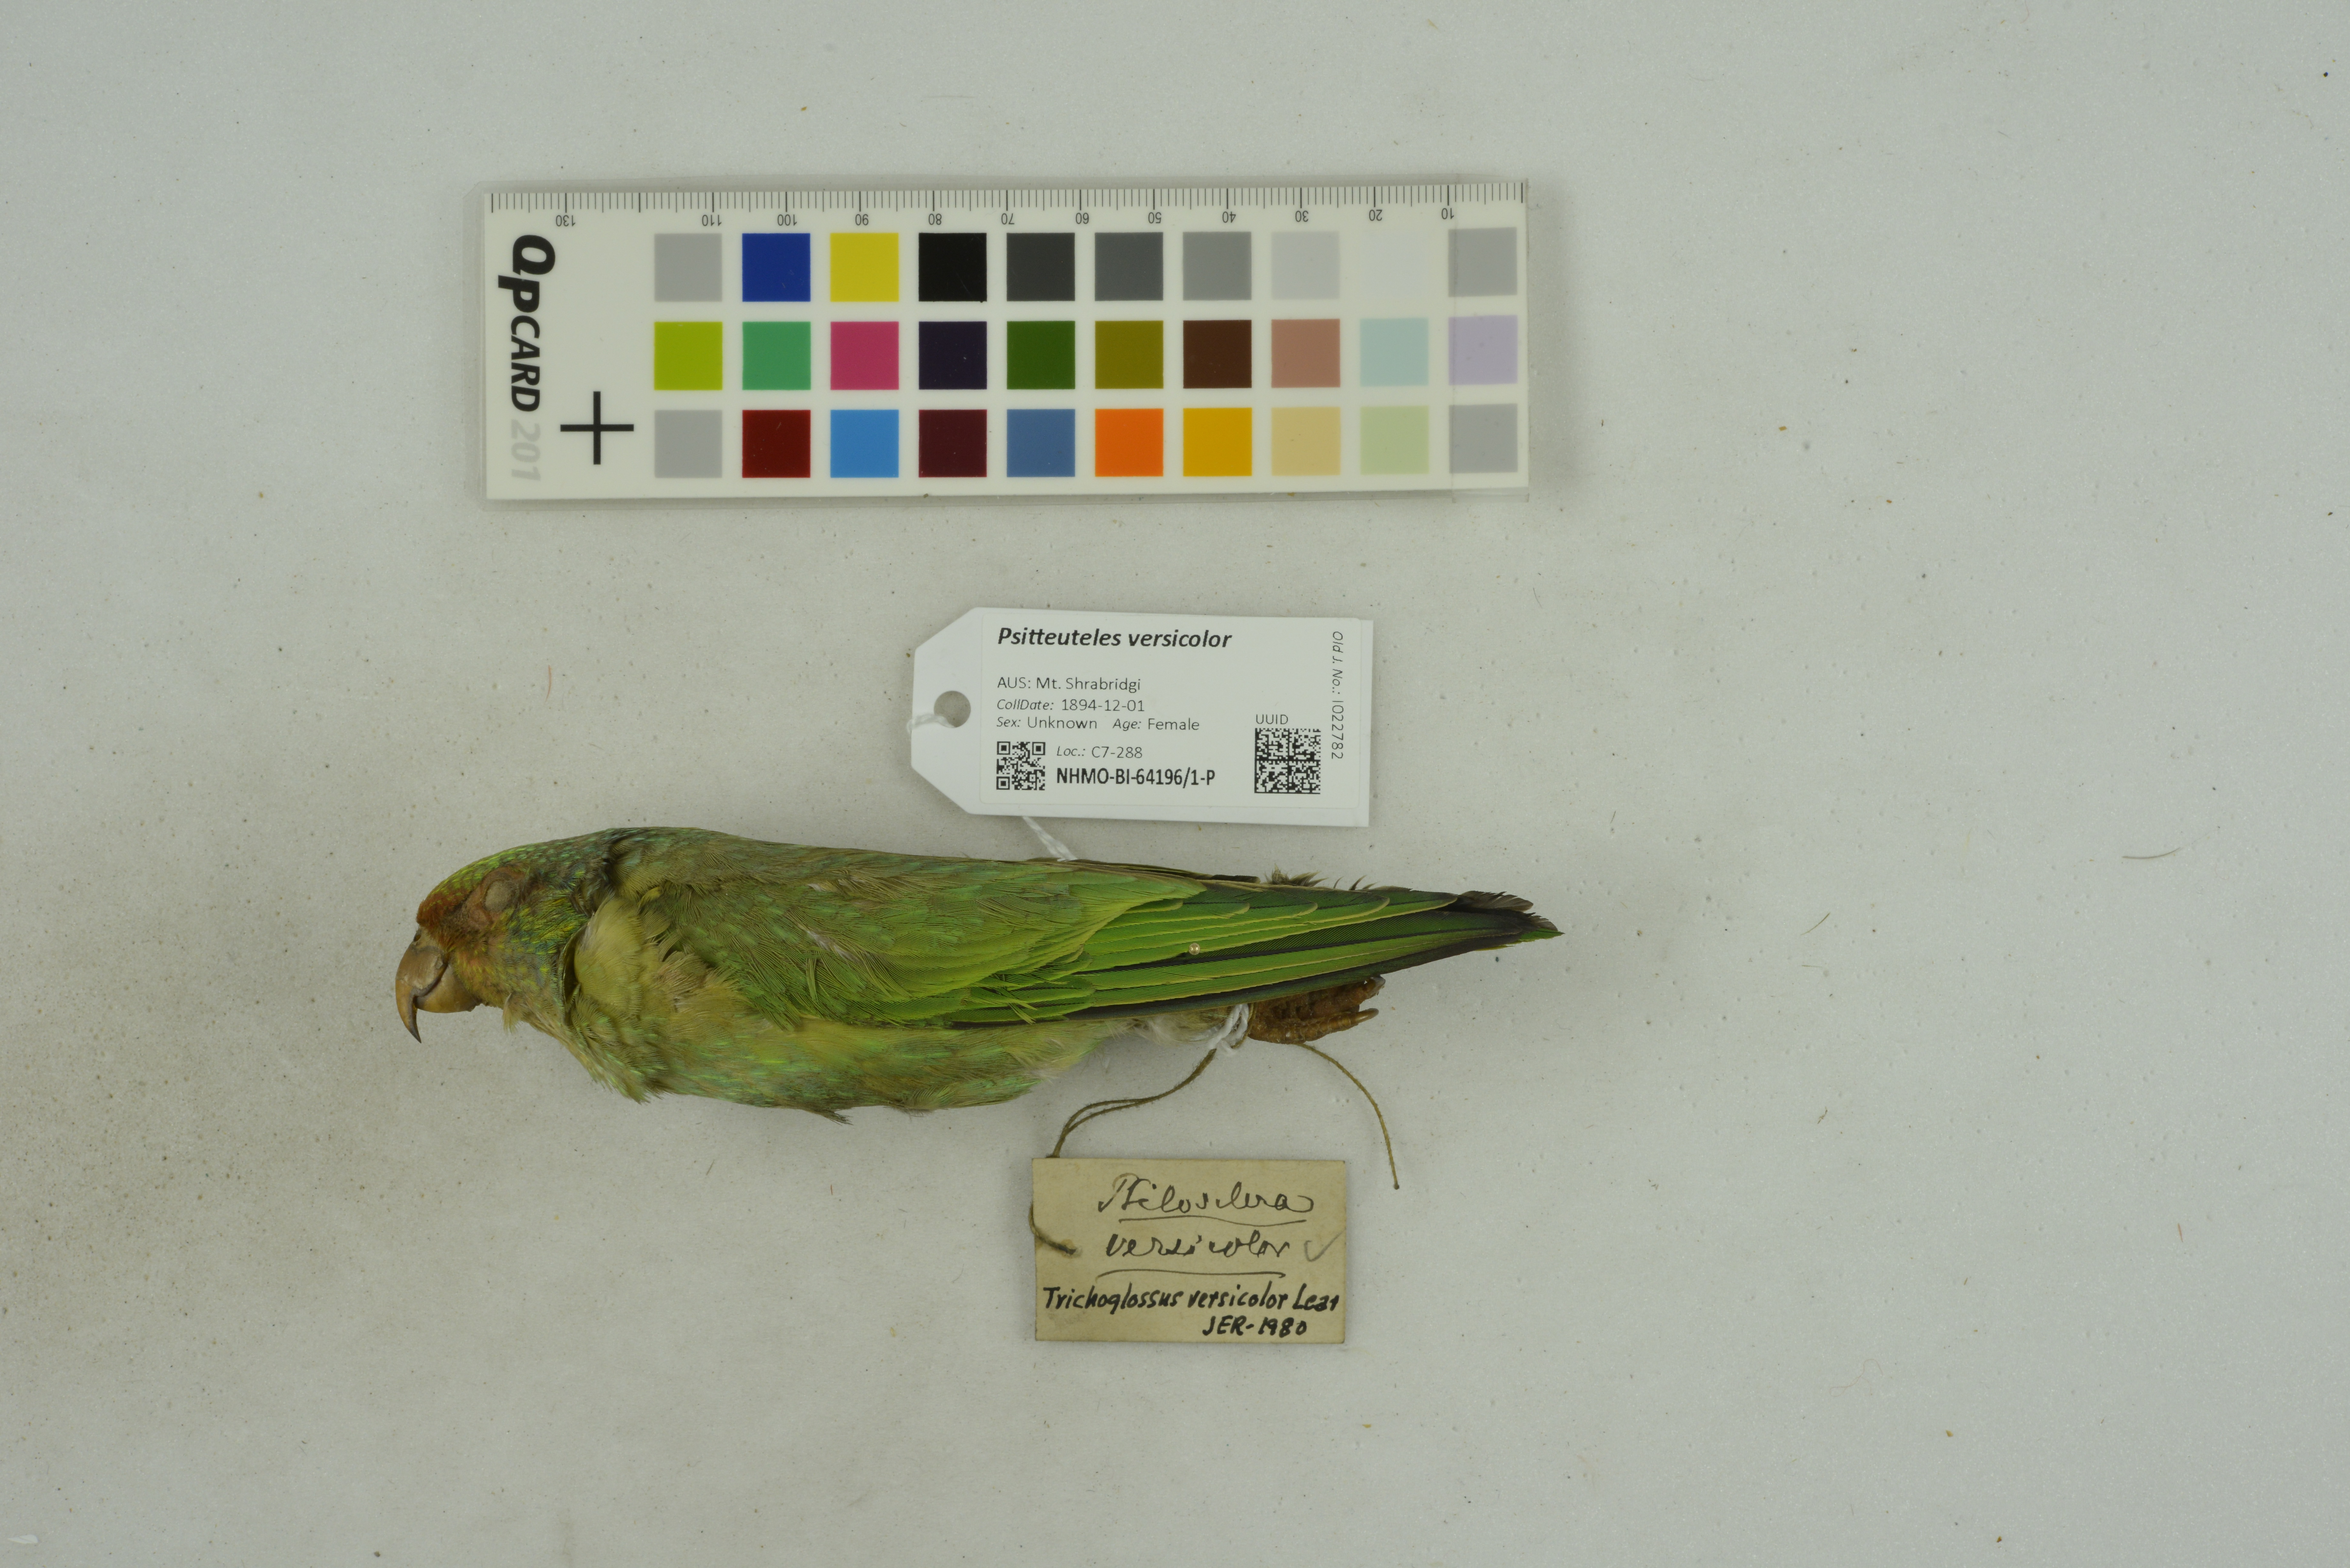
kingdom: Animalia
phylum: Chordata
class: Aves
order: Psittaciformes
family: Psittacidae
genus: Psitteuteles
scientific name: Psitteuteles versicolor
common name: Varied lorikeet
